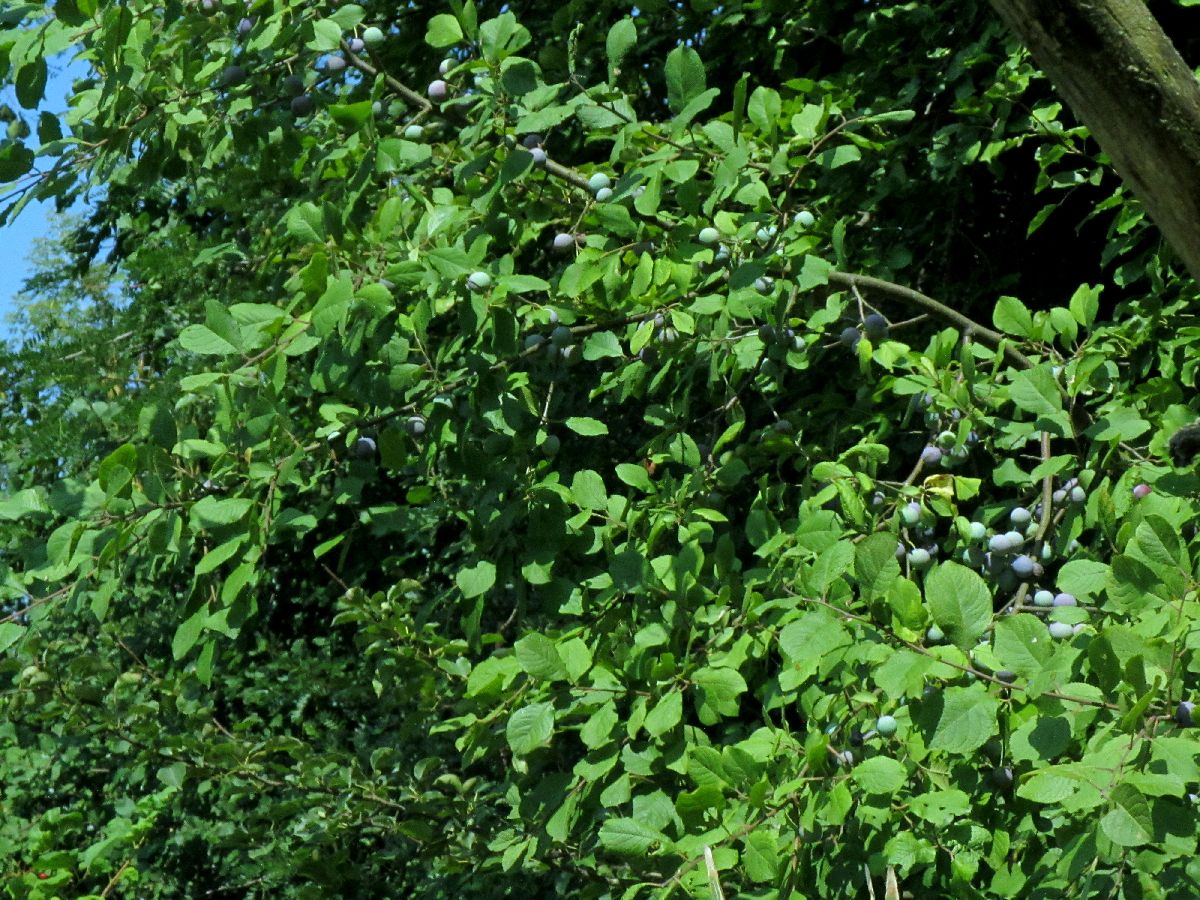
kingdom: Plantae
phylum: Tracheophyta
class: Magnoliopsida
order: Rosales
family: Rosaceae
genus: Prunus
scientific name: Prunus
